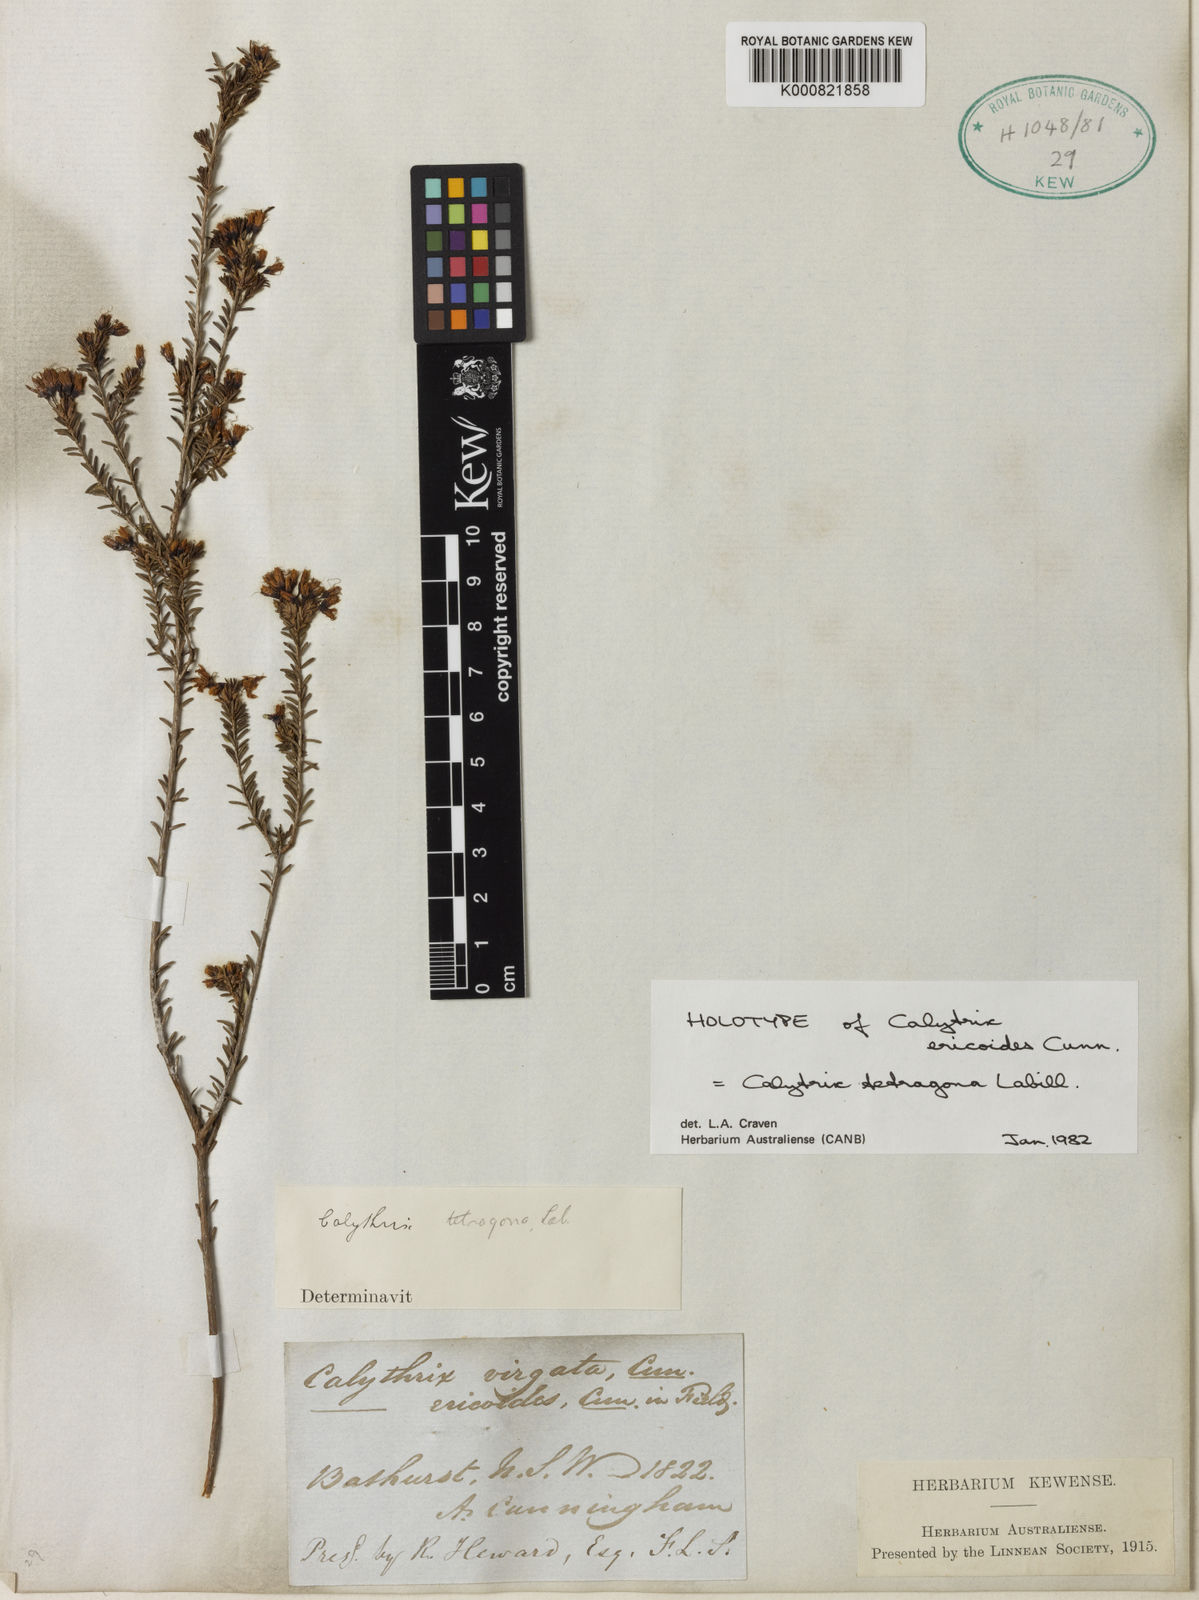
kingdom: Plantae
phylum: Tracheophyta
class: Magnoliopsida
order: Myrtales
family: Myrtaceae
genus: Calytrix
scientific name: Calytrix tetragona
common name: Common fringe myrtle
